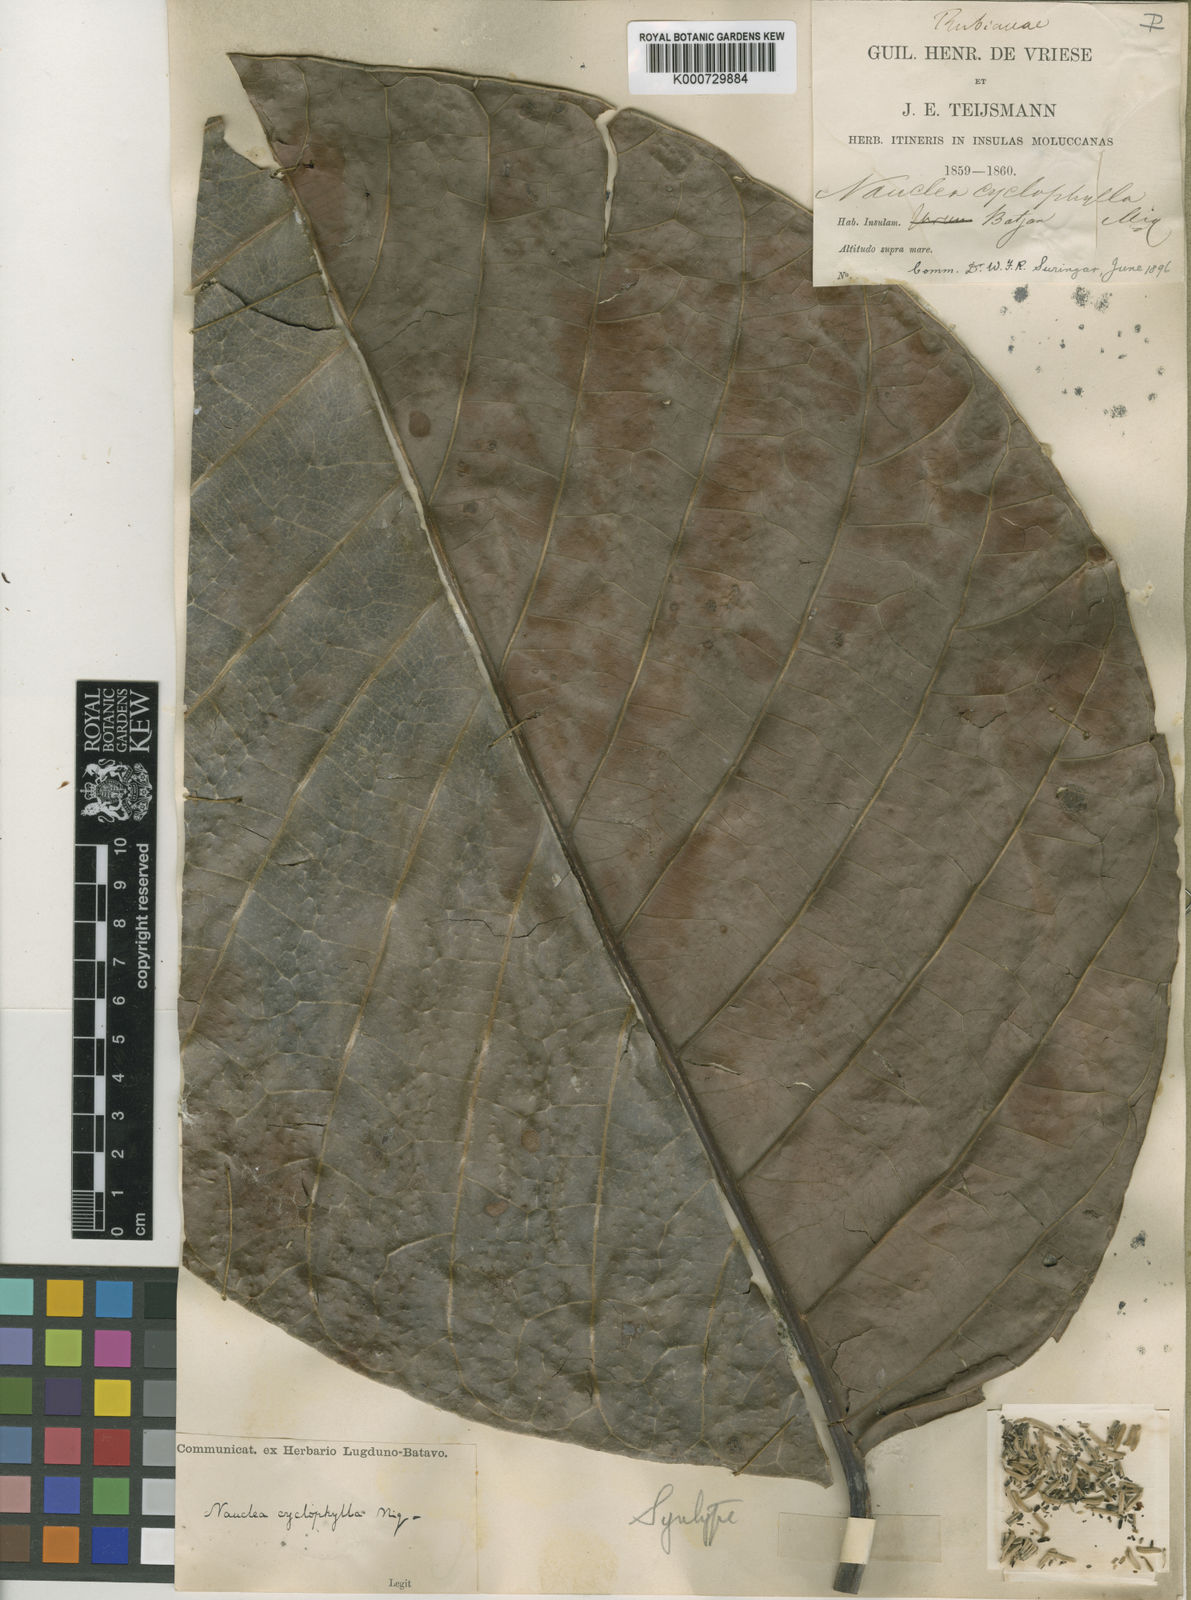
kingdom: Plantae
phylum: Tracheophyta
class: Magnoliopsida
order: Gentianales
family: Rubiaceae
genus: Neonauclea
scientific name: Neonauclea cyclophylla
